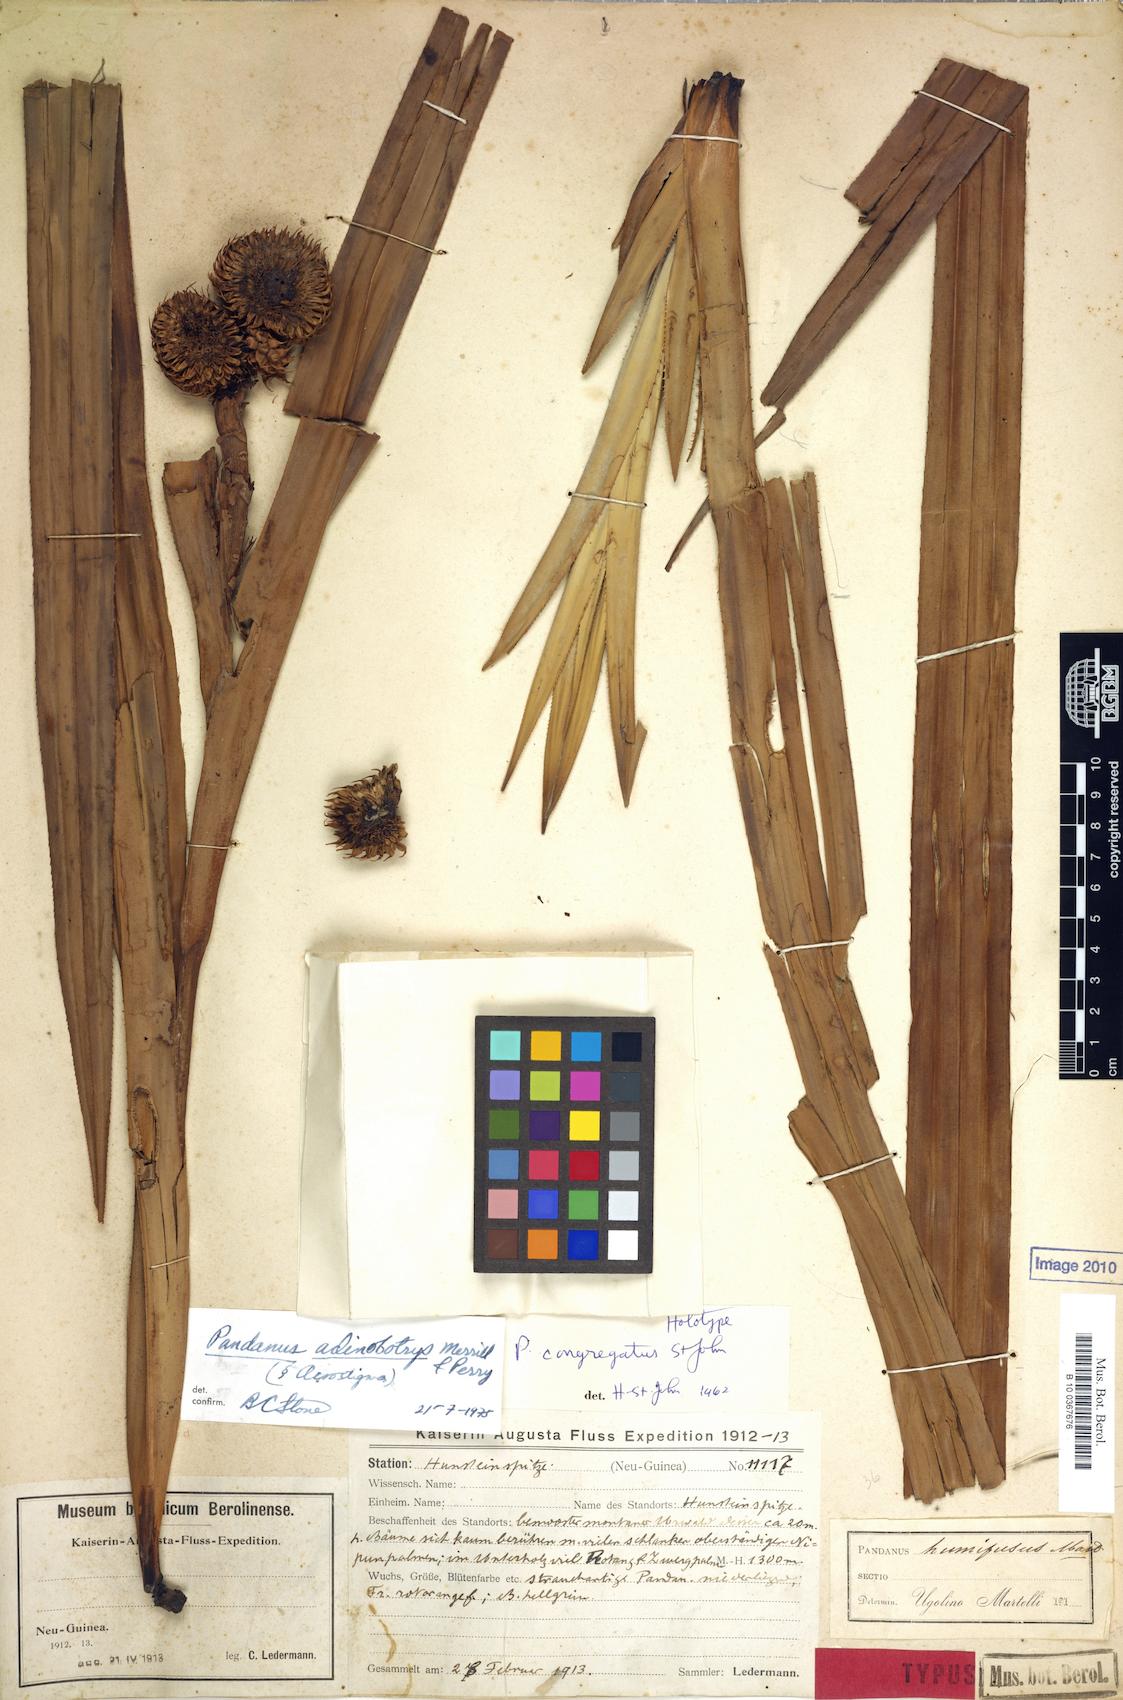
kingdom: Plantae
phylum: Tracheophyta
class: Liliopsida
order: Pandanales
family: Pandanaceae
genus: Benstonea
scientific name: Benstonea adinobotrys
